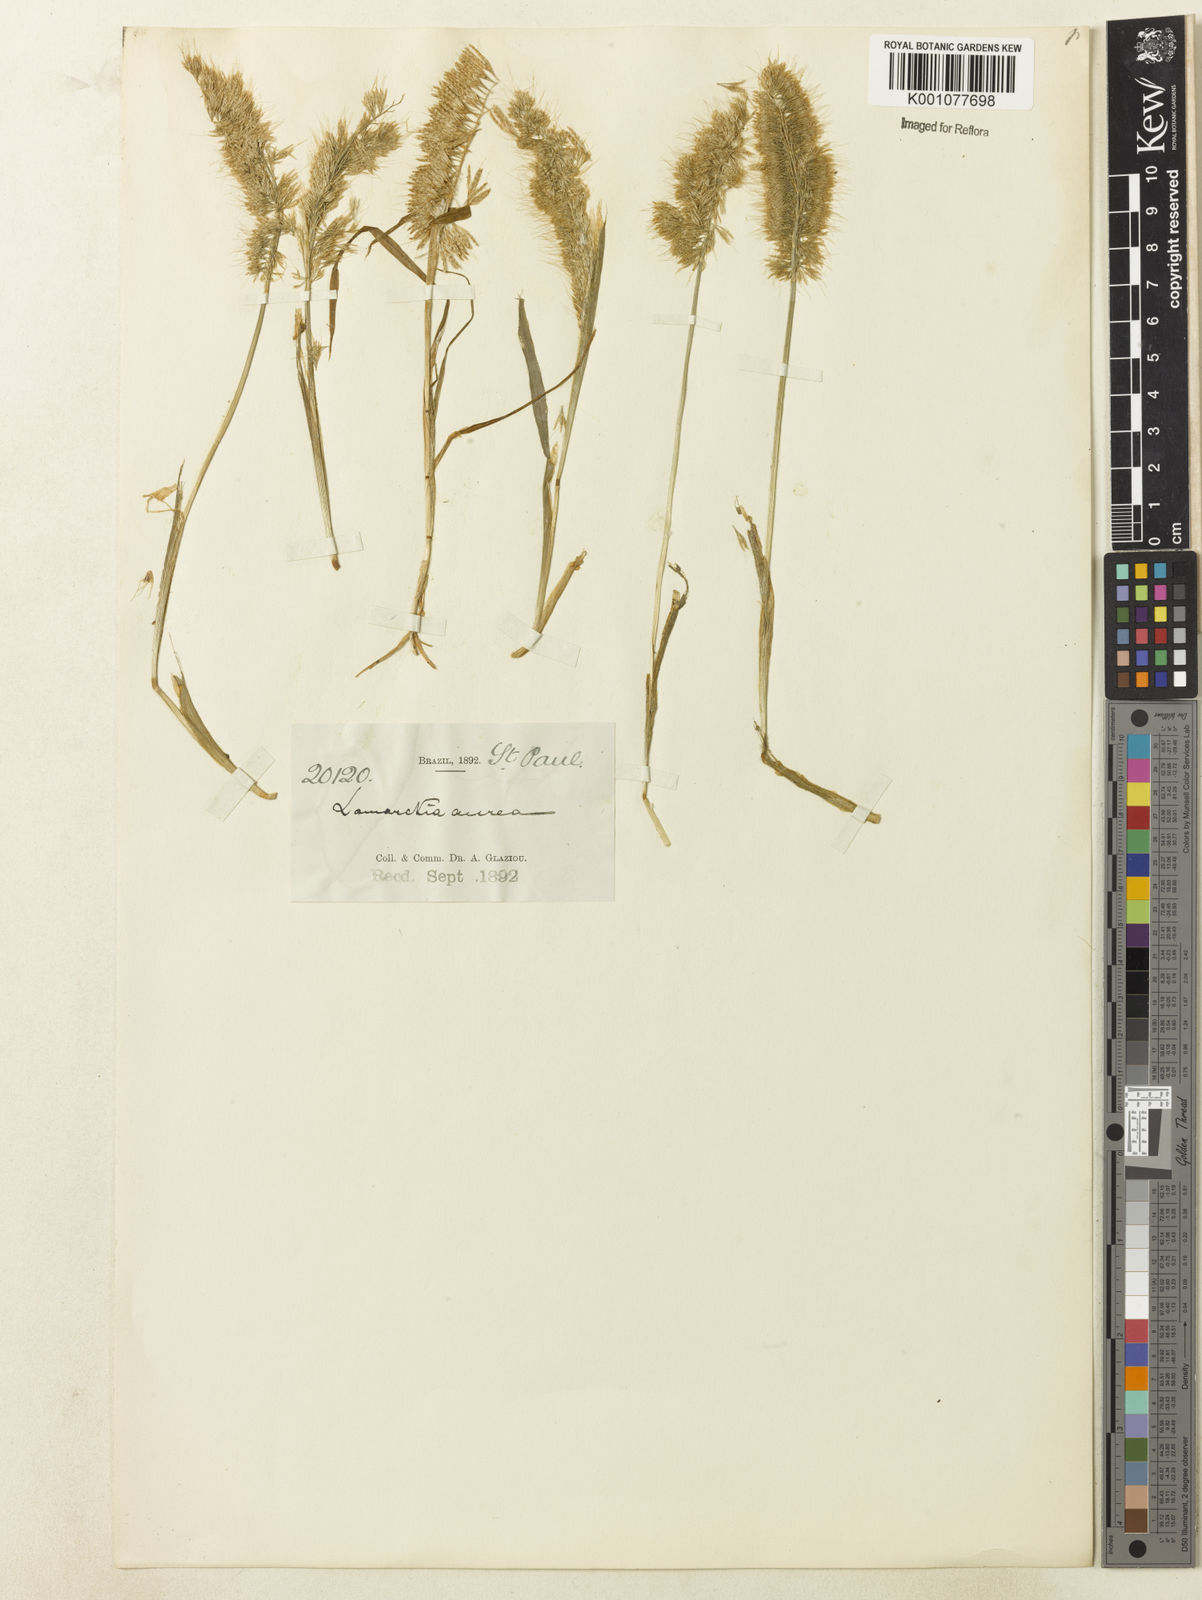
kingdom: Plantae
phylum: Tracheophyta
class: Liliopsida
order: Poales
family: Poaceae
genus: Lamarckia
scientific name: Lamarckia aurea
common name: Golden dog's-tail
